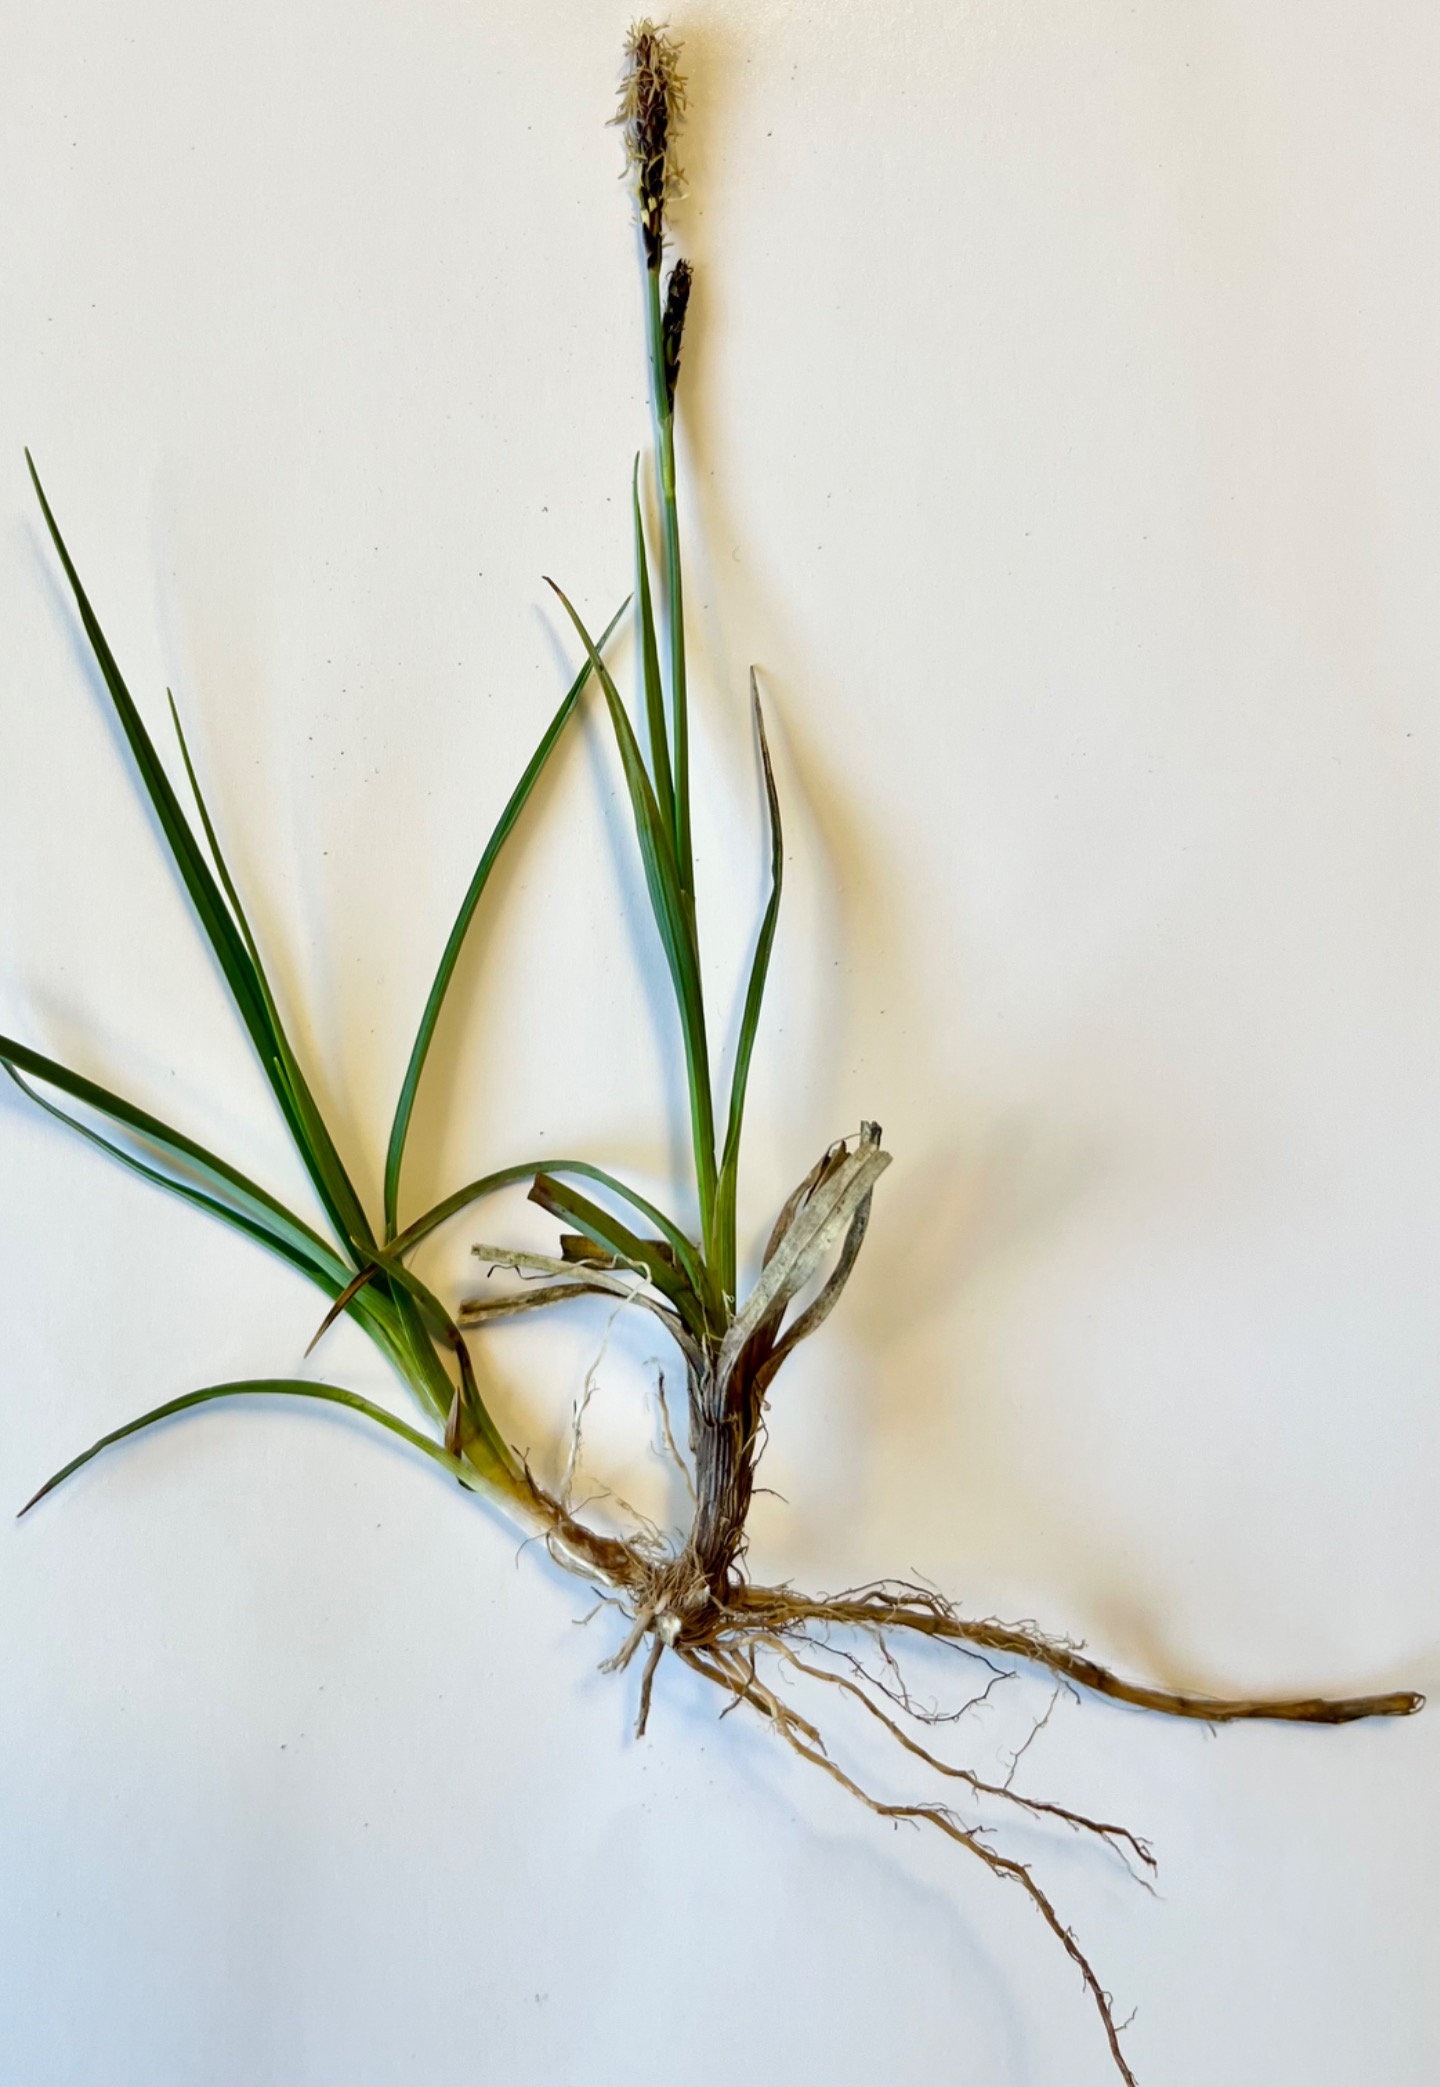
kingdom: Plantae
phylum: Tracheophyta
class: Liliopsida
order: Poales
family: Cyperaceae
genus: Carex
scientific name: Carex caryophyllea
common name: Vår-star
